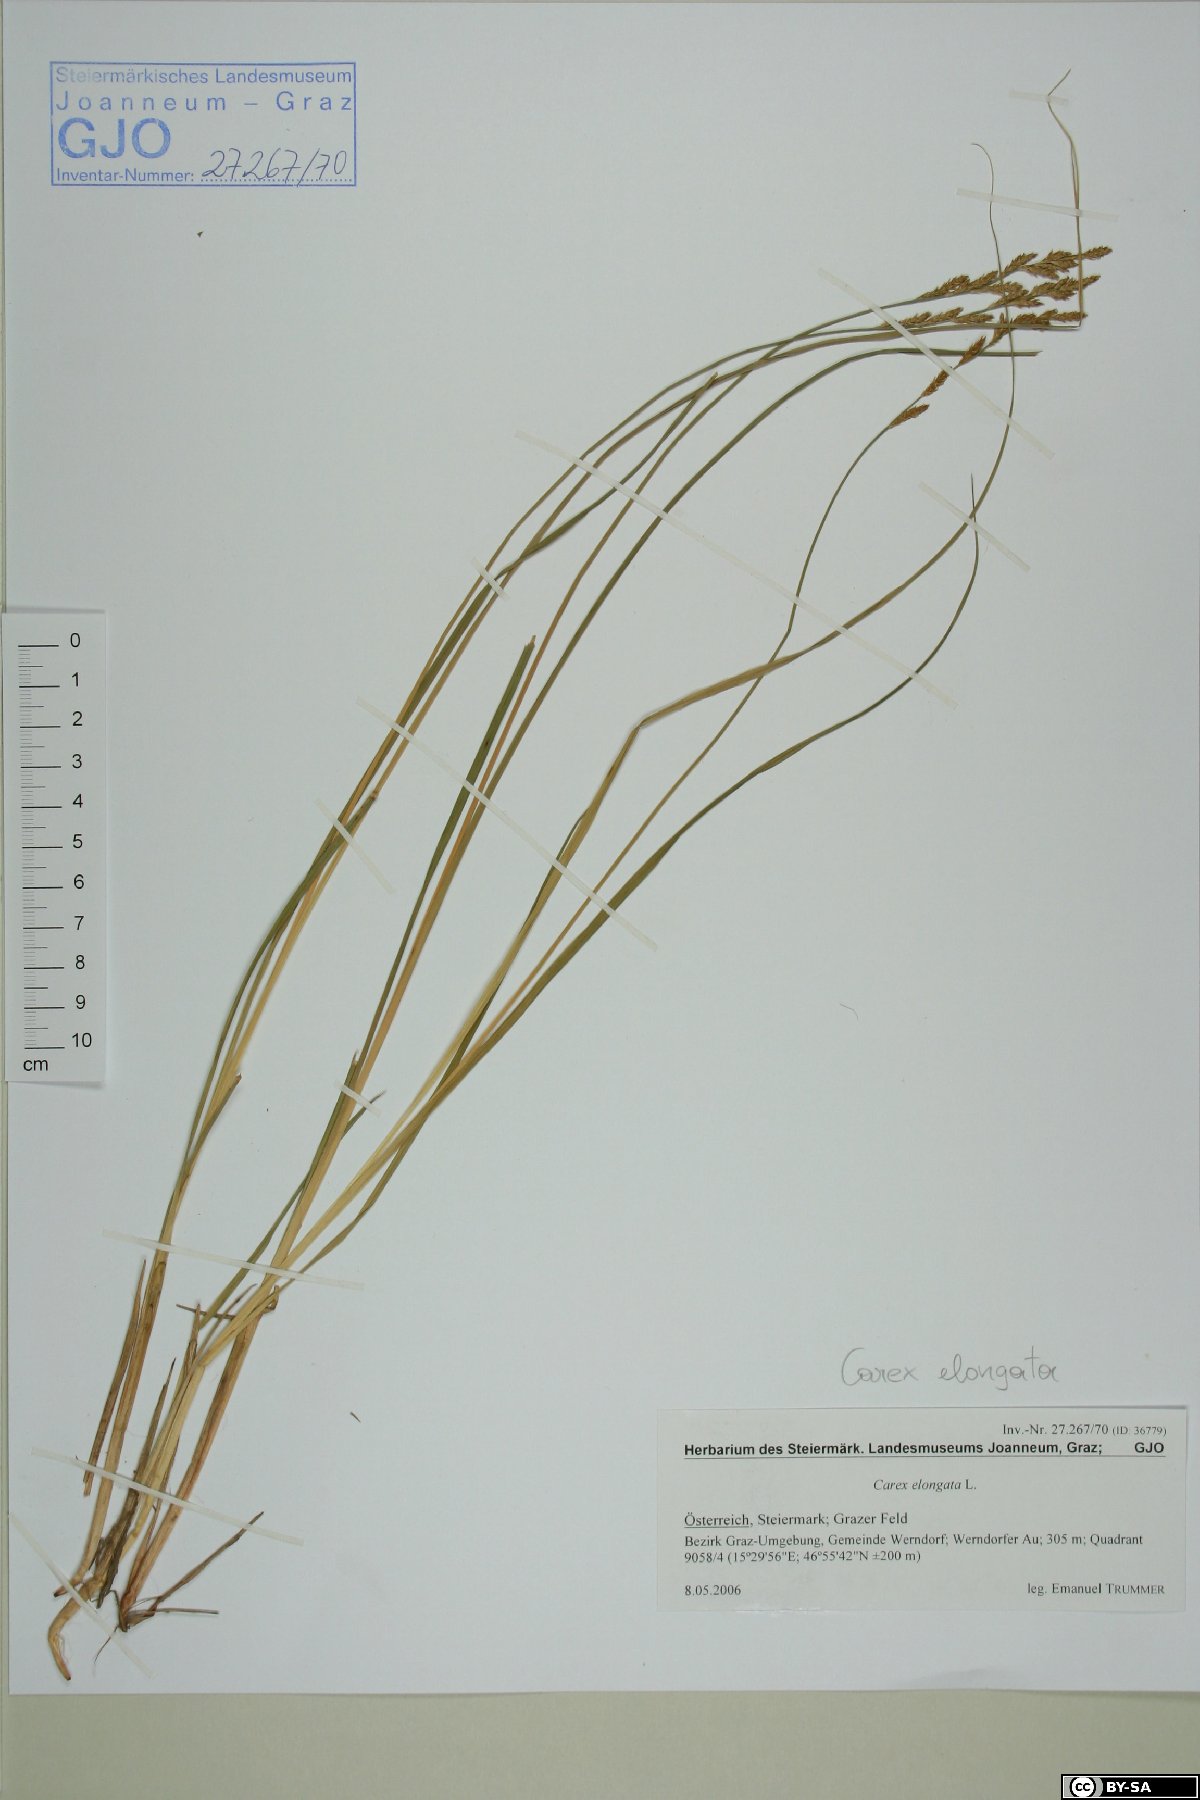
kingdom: Plantae
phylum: Tracheophyta
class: Liliopsida
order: Poales
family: Cyperaceae
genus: Carex
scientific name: Carex elongata
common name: Elongated sedge
